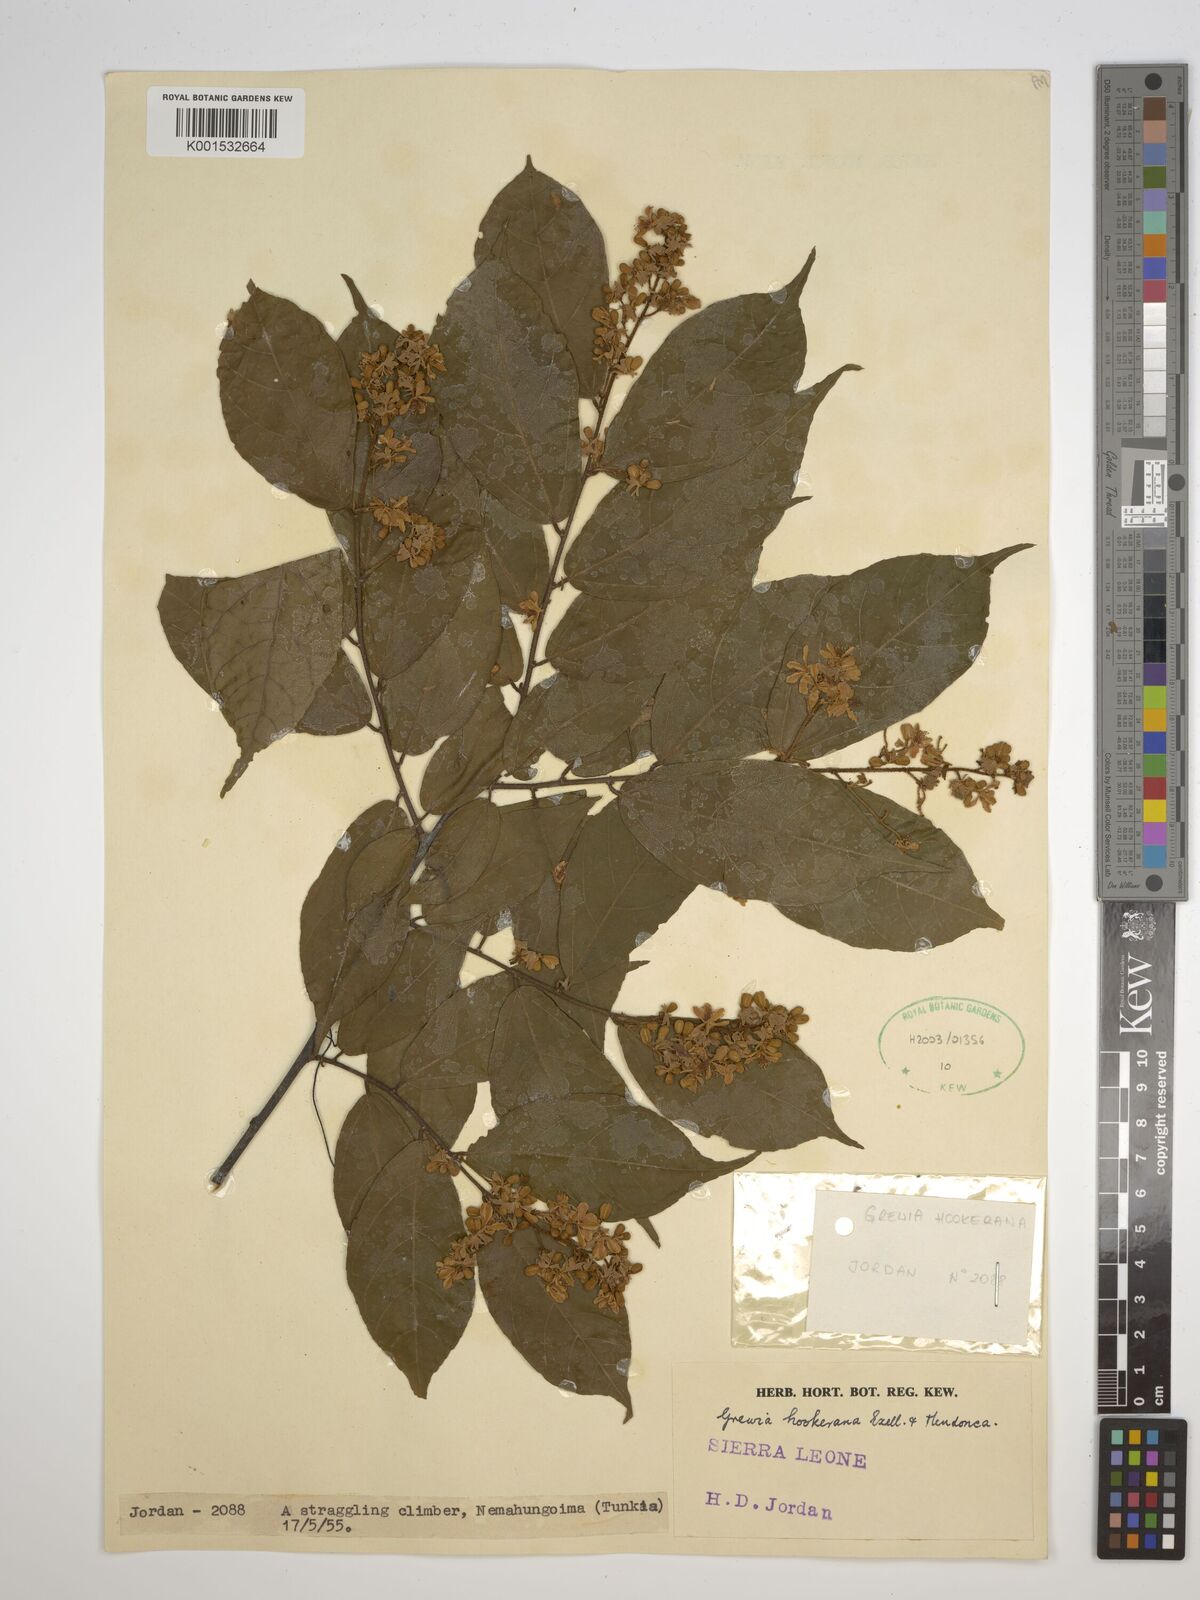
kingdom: Plantae
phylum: Tracheophyta
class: Magnoliopsida
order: Malvales
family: Malvaceae
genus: Microcos
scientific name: Microcos africana
